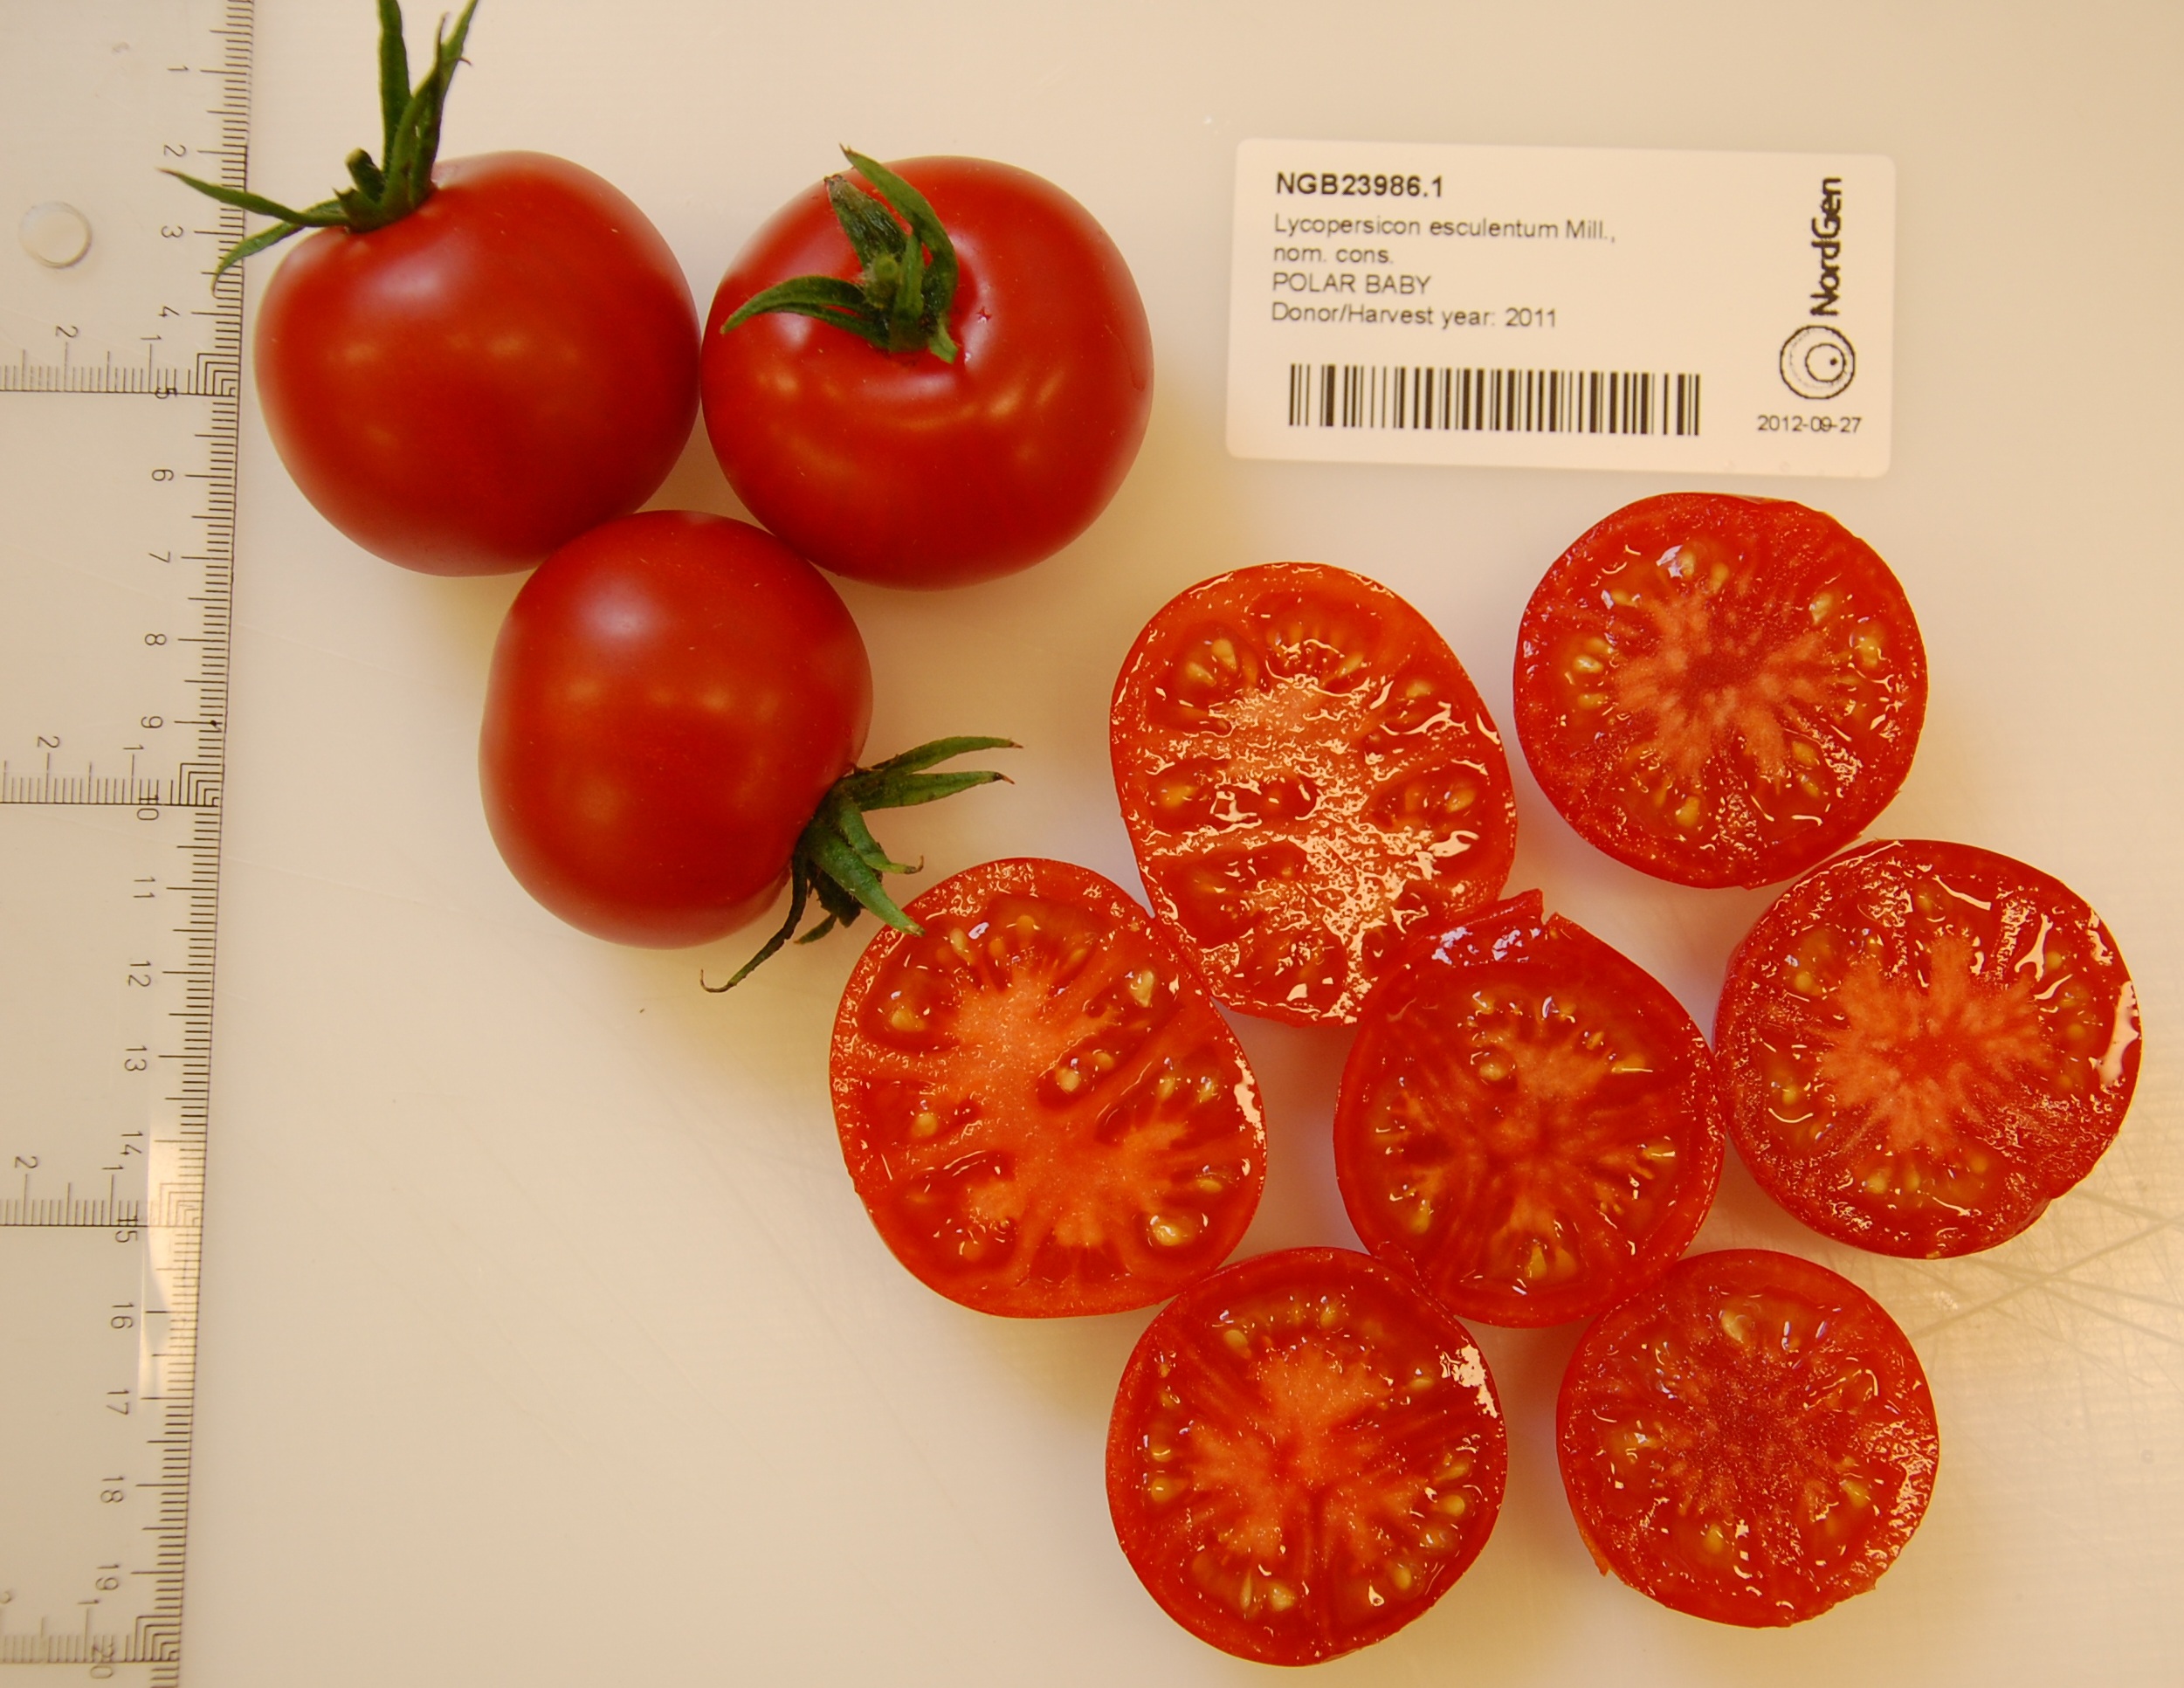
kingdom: Plantae
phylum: Tracheophyta
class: Magnoliopsida
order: Solanales
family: Solanaceae
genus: Solanum
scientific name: Solanum lycopersicum
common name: Garden tomato
